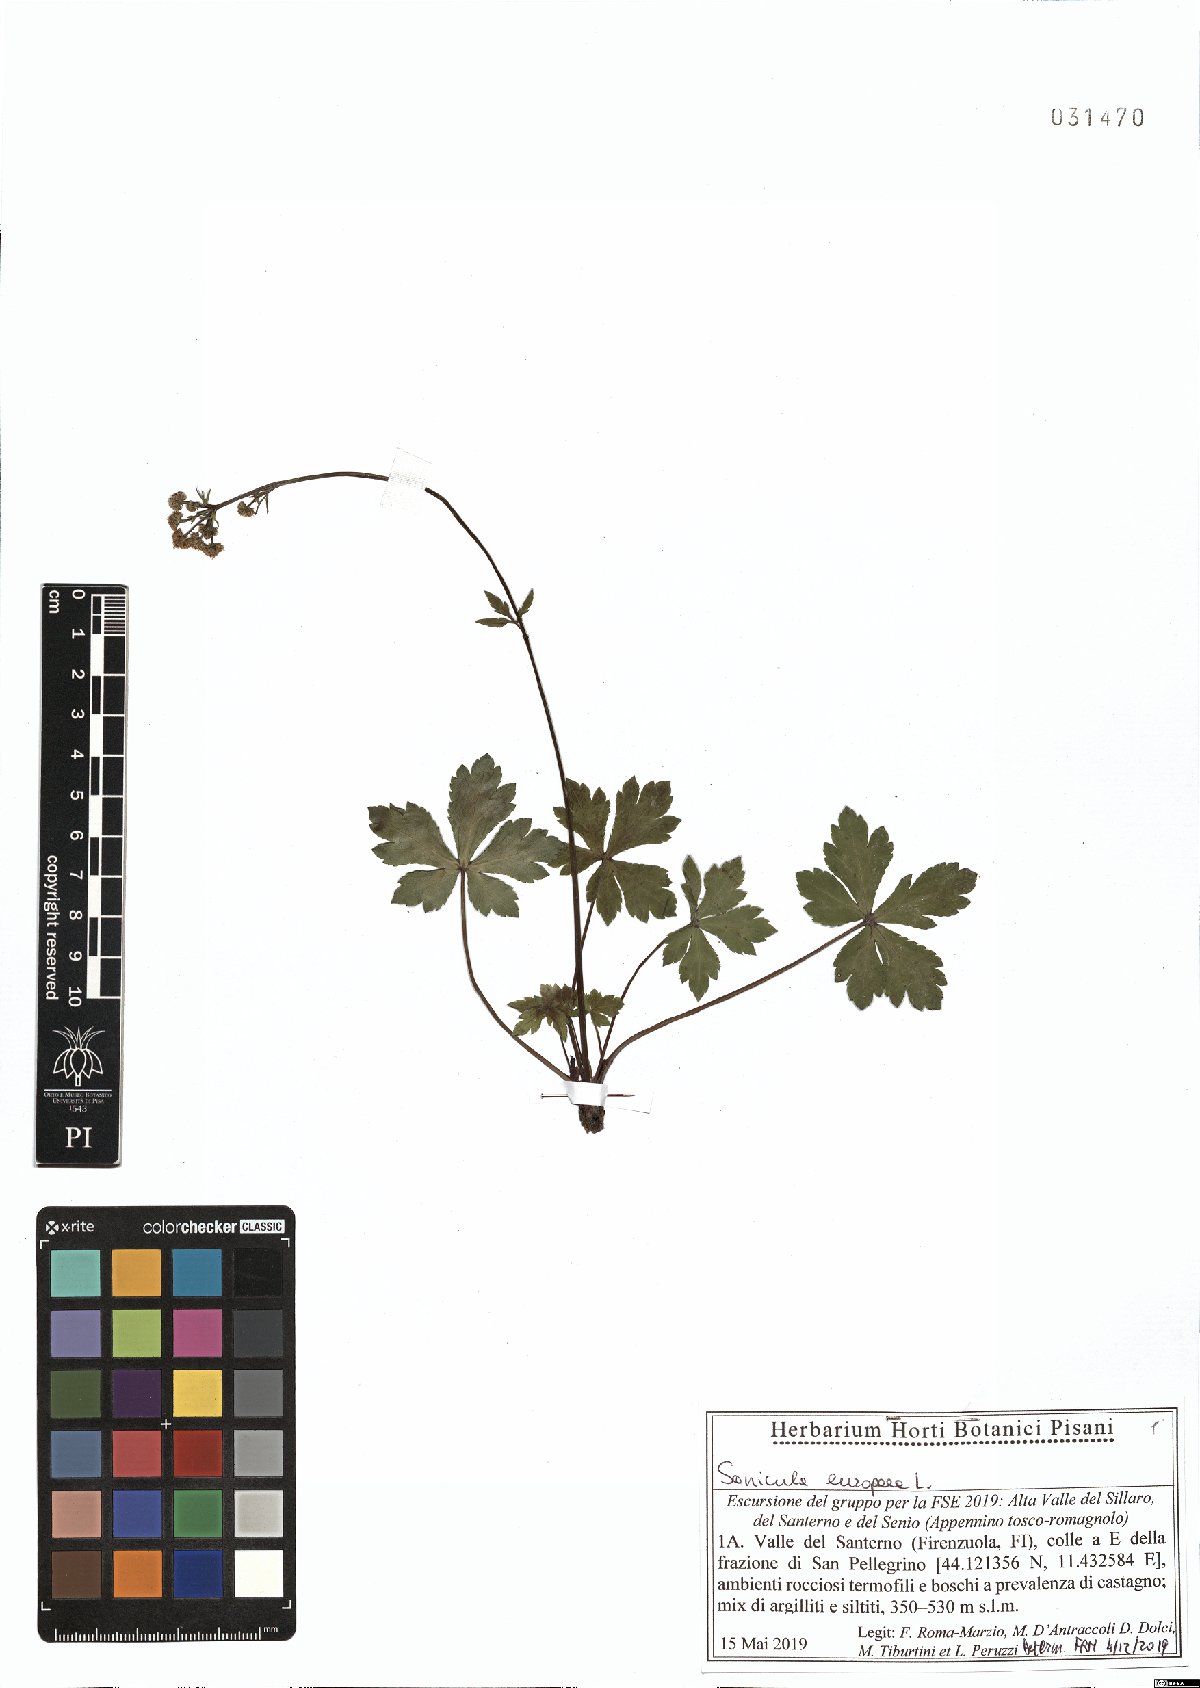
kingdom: Plantae
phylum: Tracheophyta
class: Magnoliopsida
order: Apiales
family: Apiaceae
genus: Sanicula
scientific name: Sanicula europaea
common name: Sanicle
